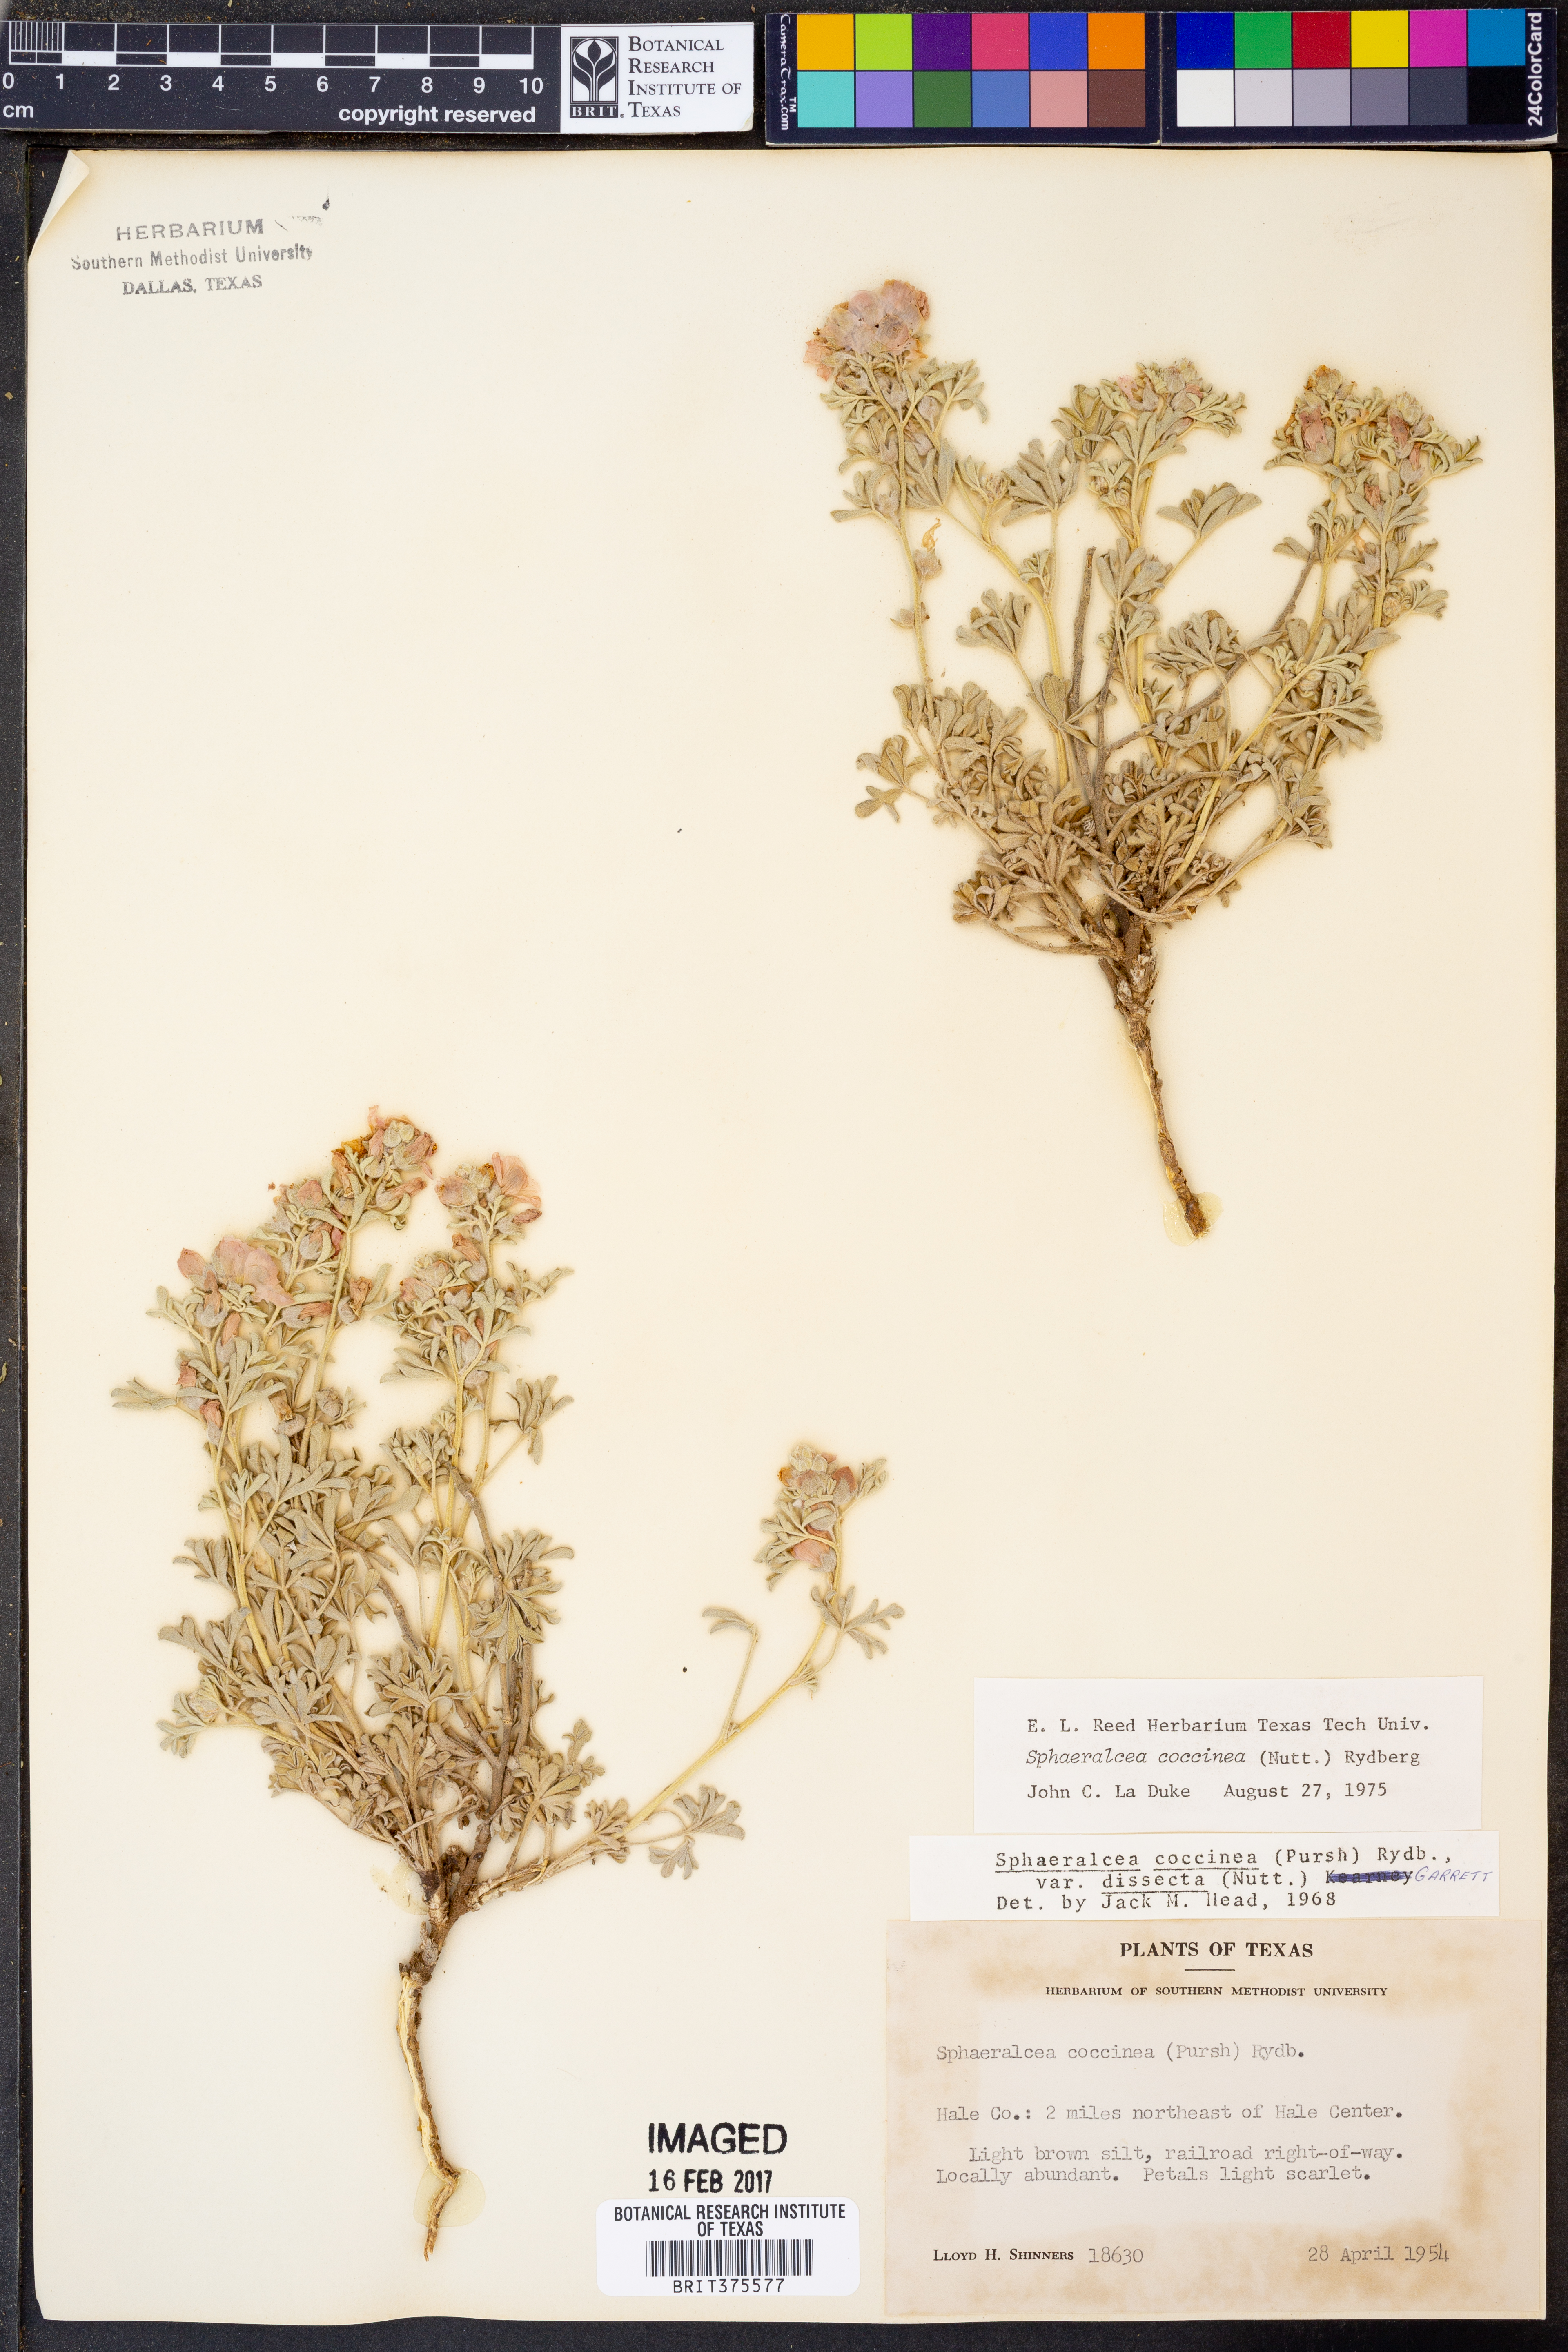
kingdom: Plantae
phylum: Tracheophyta
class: Magnoliopsida
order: Malvales
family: Malvaceae
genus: Sphaeralcea
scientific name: Sphaeralcea coccinea
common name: Moss-rose
